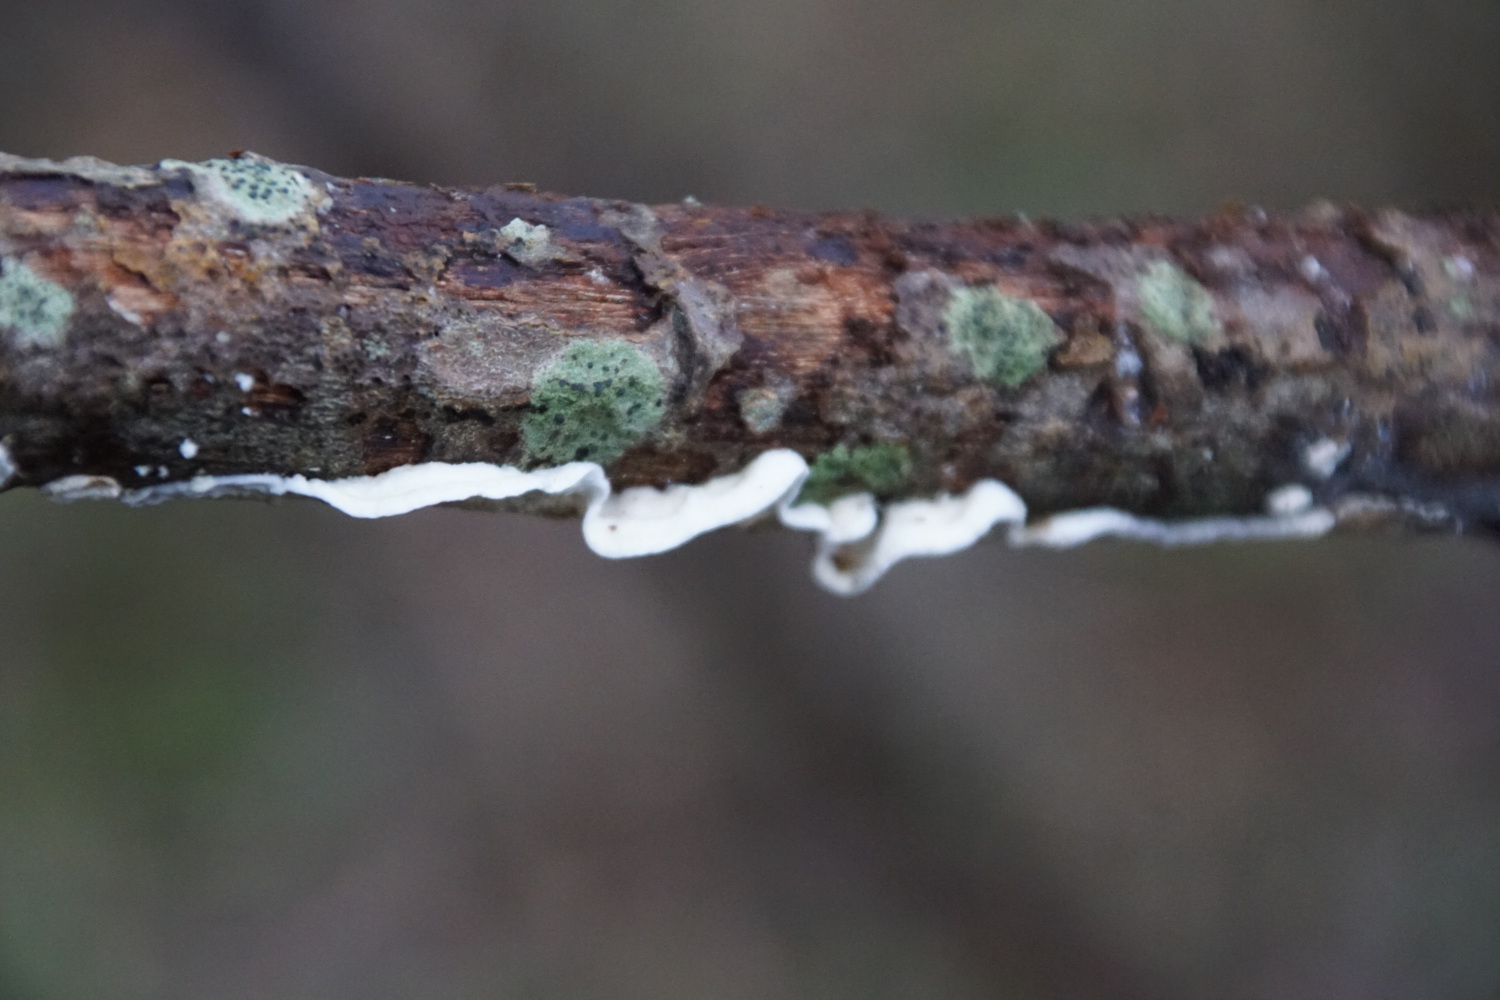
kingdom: Fungi
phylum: Basidiomycota
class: Agaricomycetes
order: Polyporales
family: Irpicaceae
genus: Byssomerulius
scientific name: Byssomerulius corium
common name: læder-åresvamp
